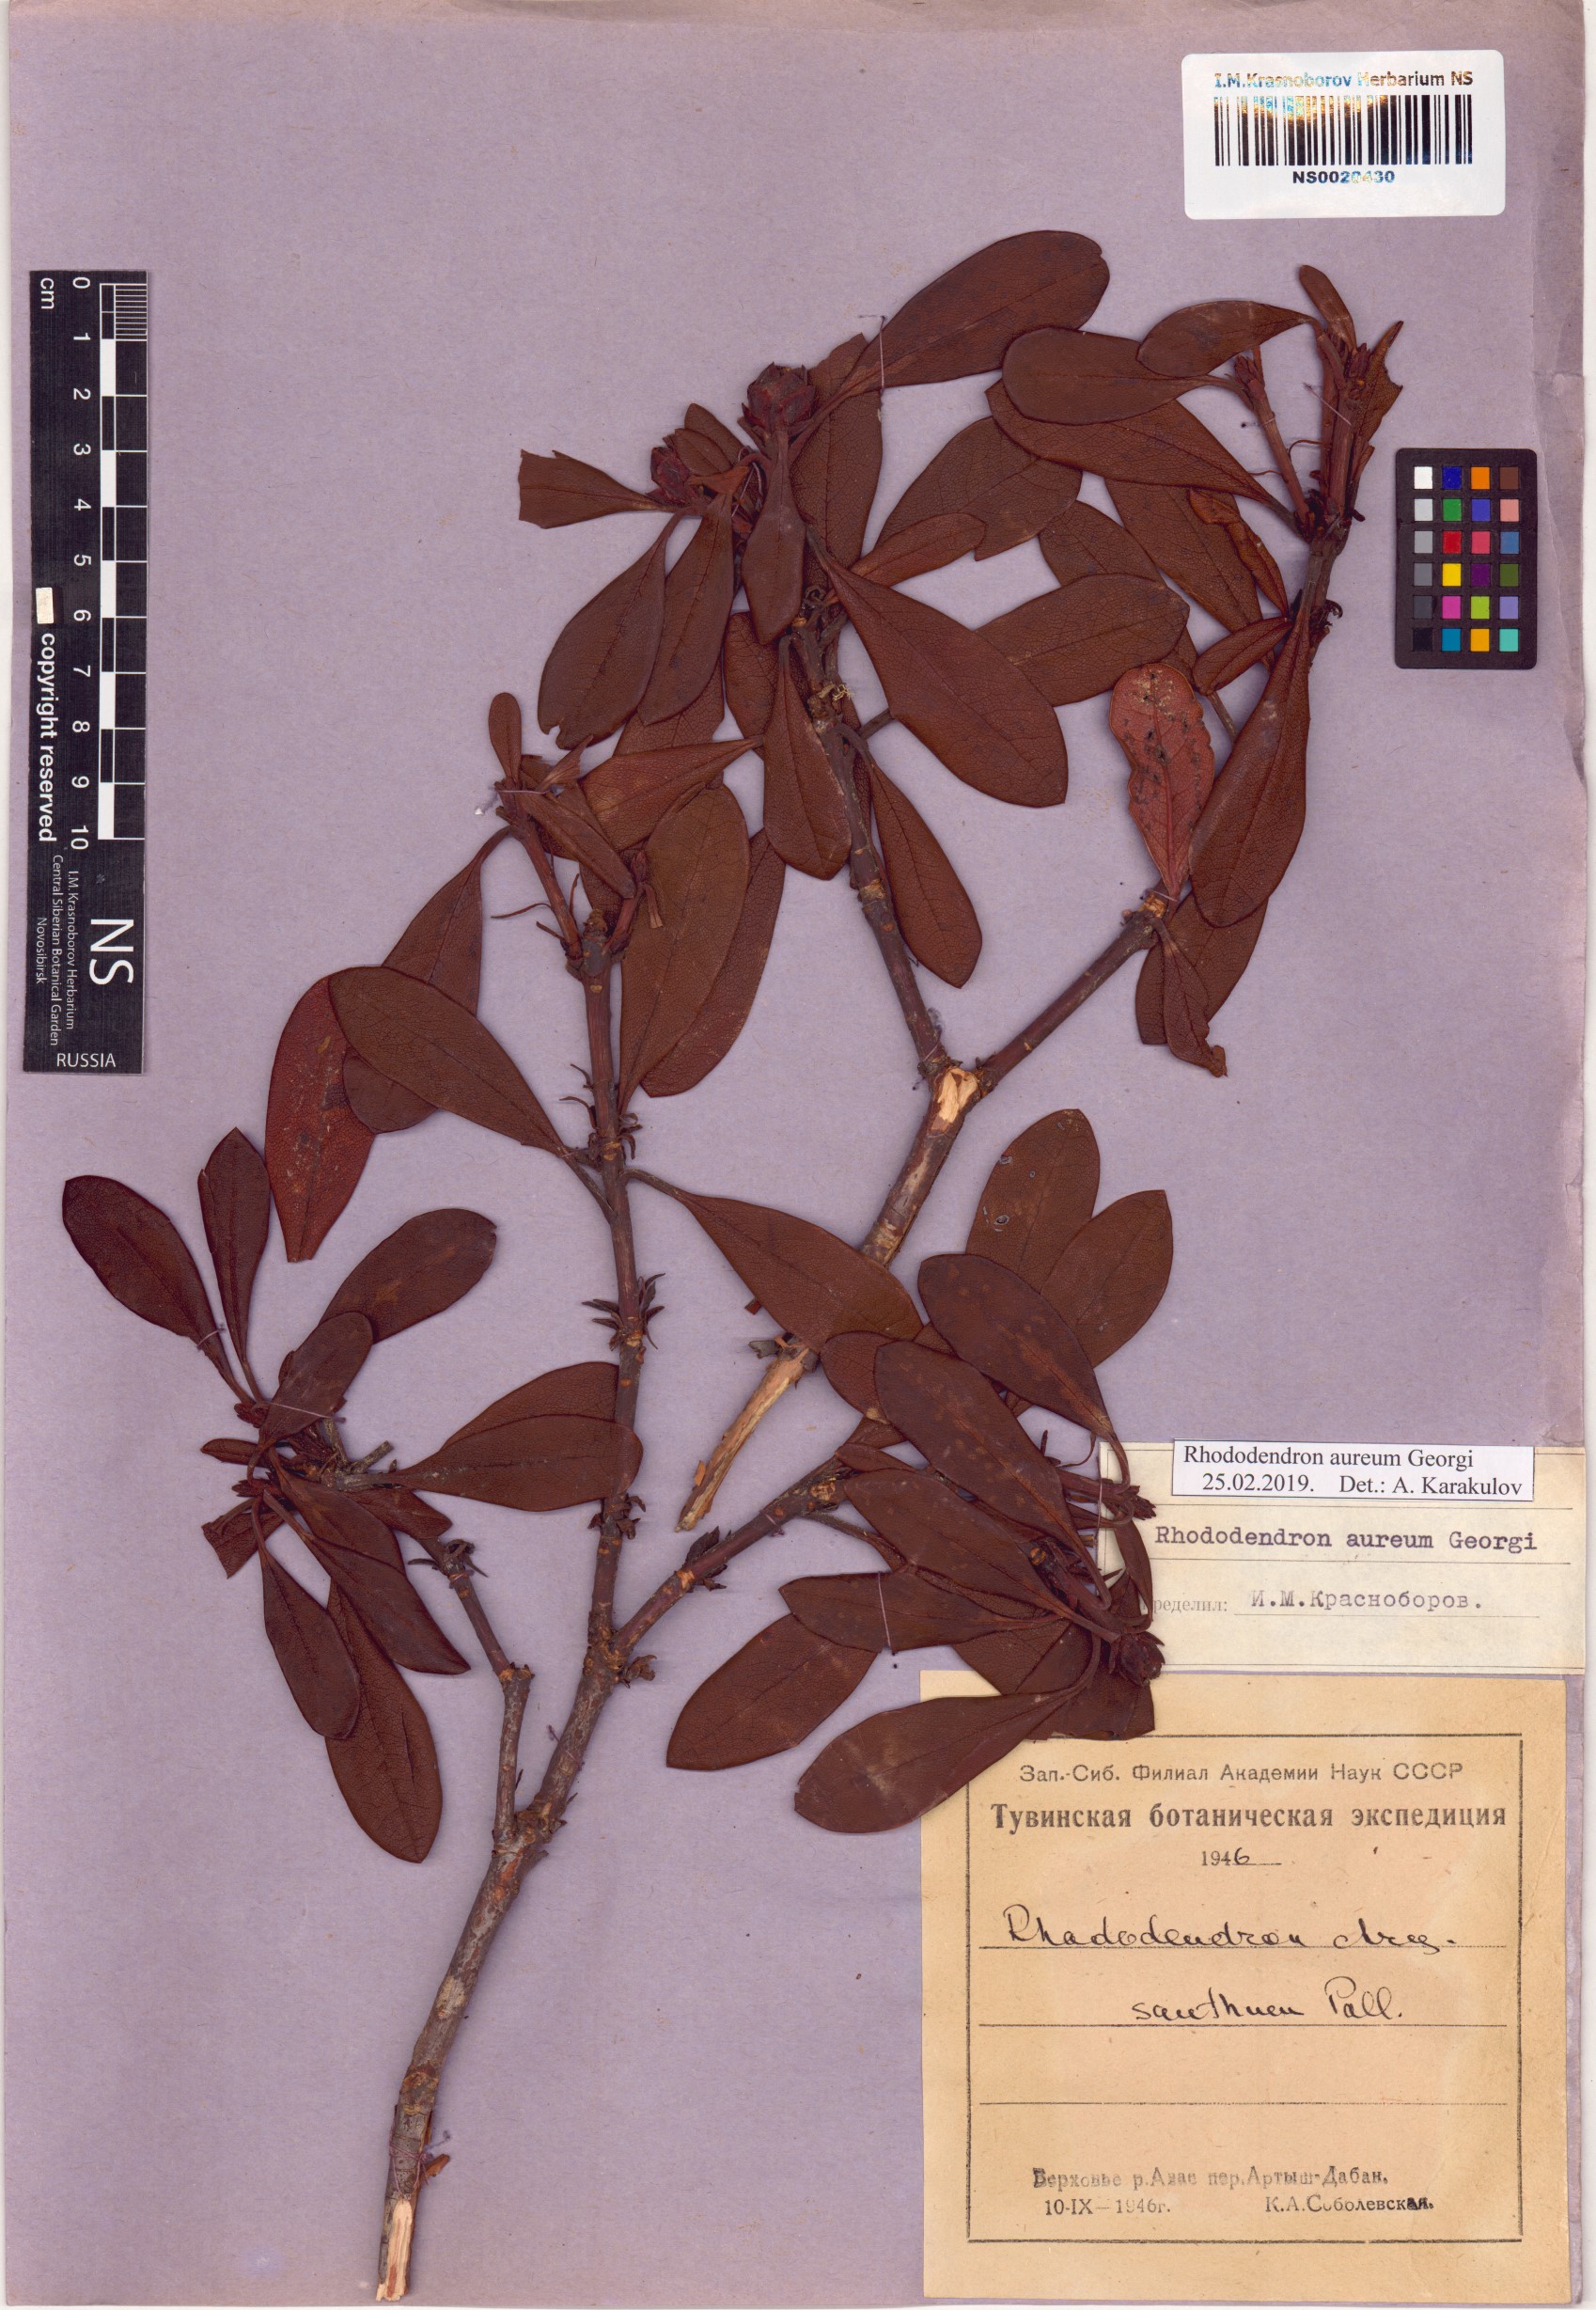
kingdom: Plantae
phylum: Tracheophyta
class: Magnoliopsida
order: Ericales
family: Ericaceae
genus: Rhododendron
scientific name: Rhododendron aureum
